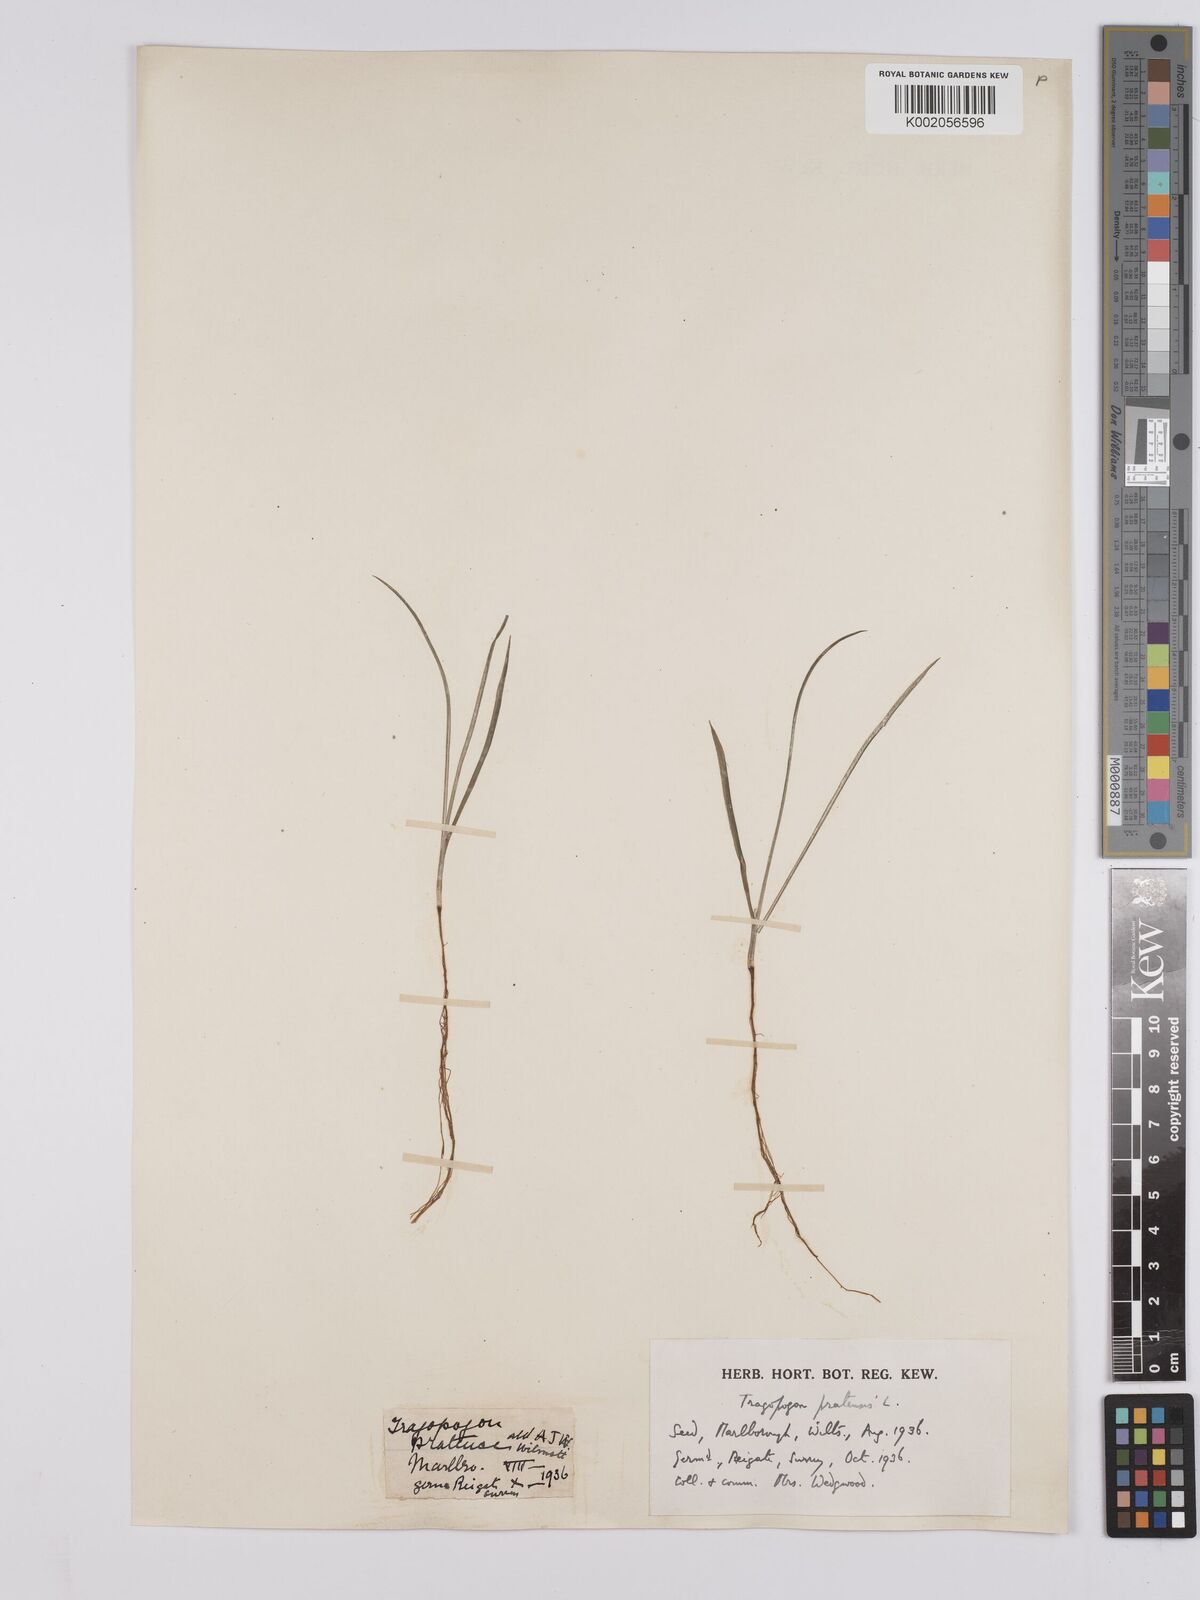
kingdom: Plantae
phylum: Tracheophyta
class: Magnoliopsida
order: Asterales
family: Asteraceae
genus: Tragopogon
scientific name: Tragopogon pratensis
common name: Goat's-beard
